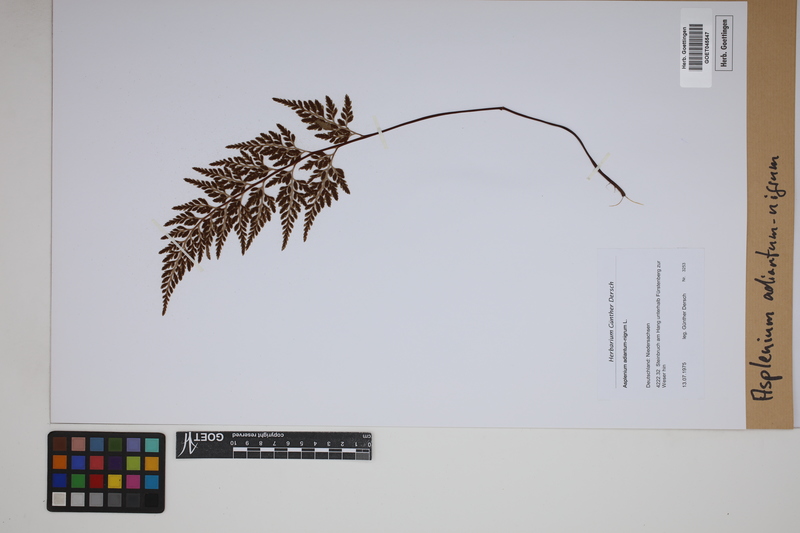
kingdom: Plantae
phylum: Tracheophyta
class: Polypodiopsida
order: Polypodiales
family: Aspleniaceae
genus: Asplenium
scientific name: Asplenium adiantum-nigrum
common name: Black spleenwort
